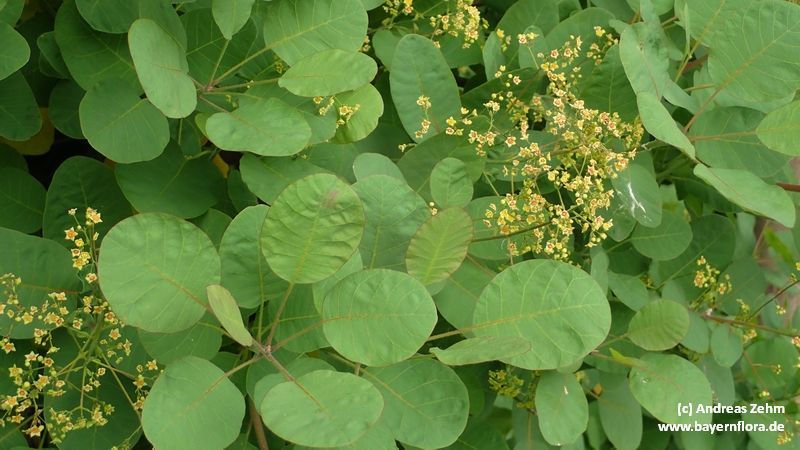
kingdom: Plantae
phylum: Tracheophyta
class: Magnoliopsida
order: Sapindales
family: Anacardiaceae
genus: Cotinus
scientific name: Cotinus coggygria
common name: Smoke-tree
